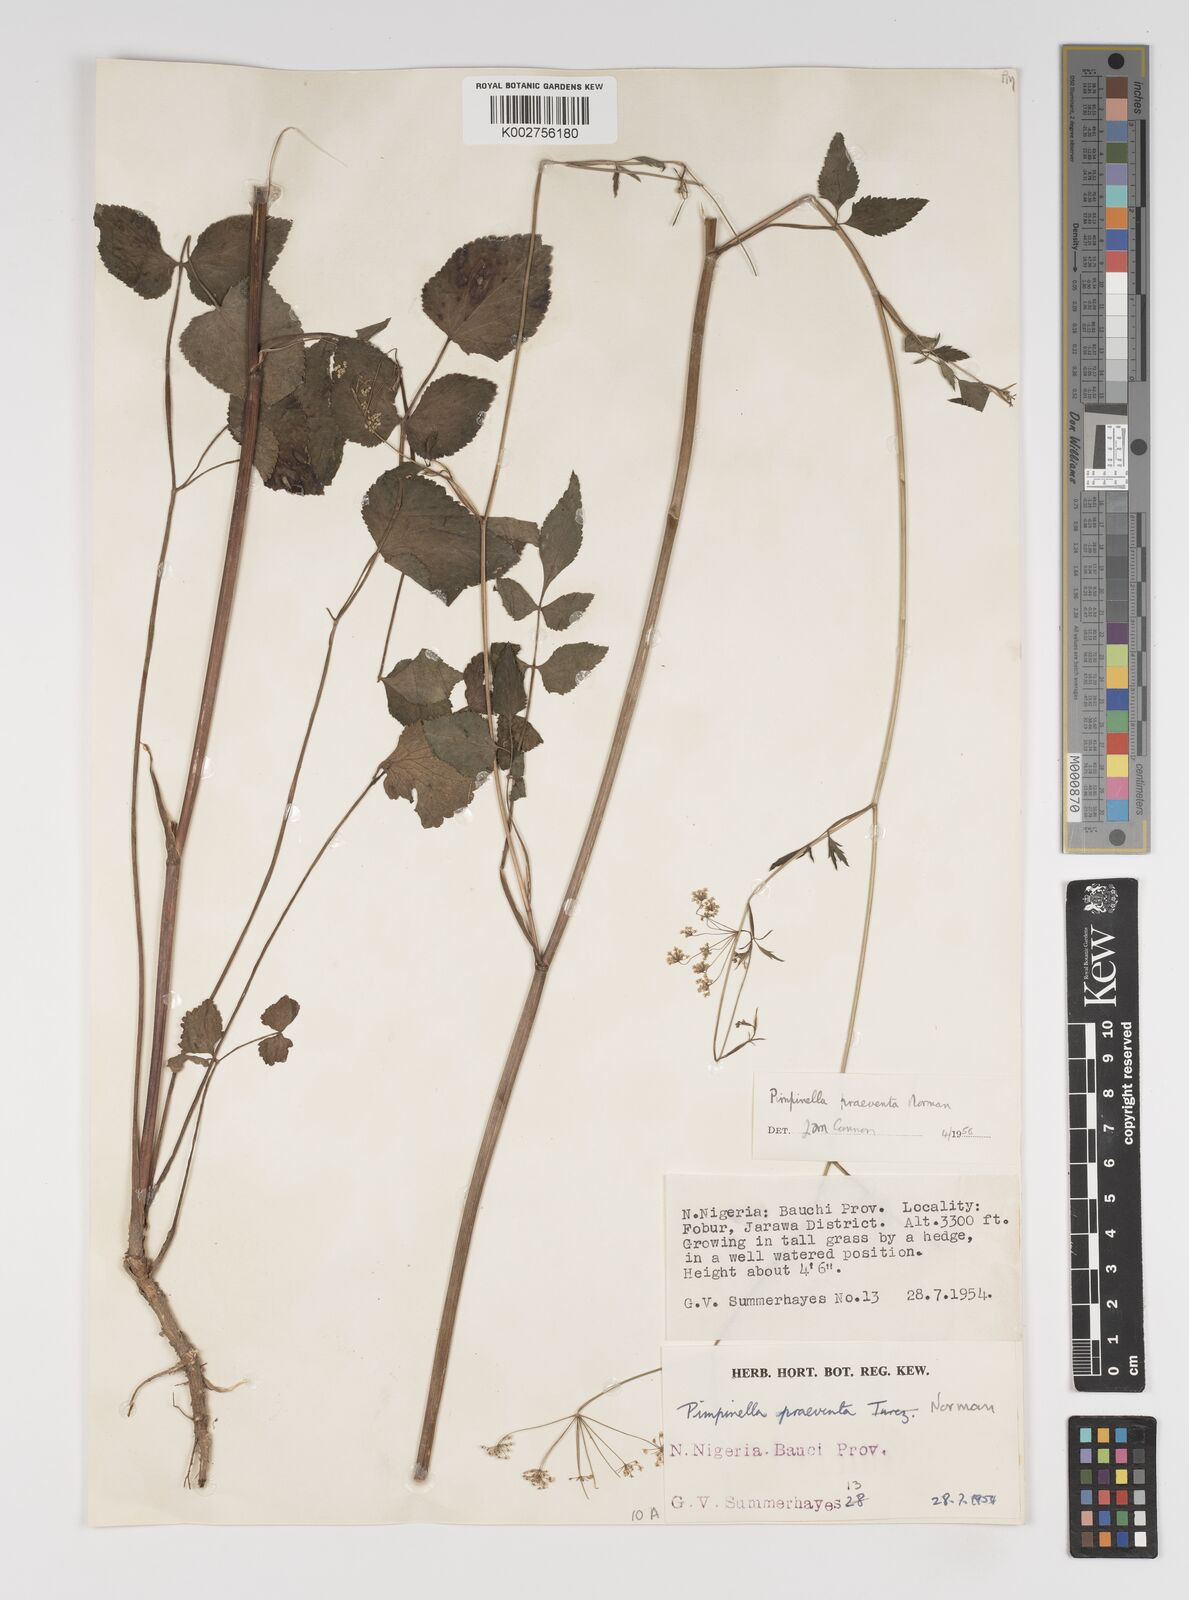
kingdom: Plantae
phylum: Tracheophyta
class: Magnoliopsida
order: Apiales
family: Apiaceae
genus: Pimpinella
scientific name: Pimpinella hirtella
